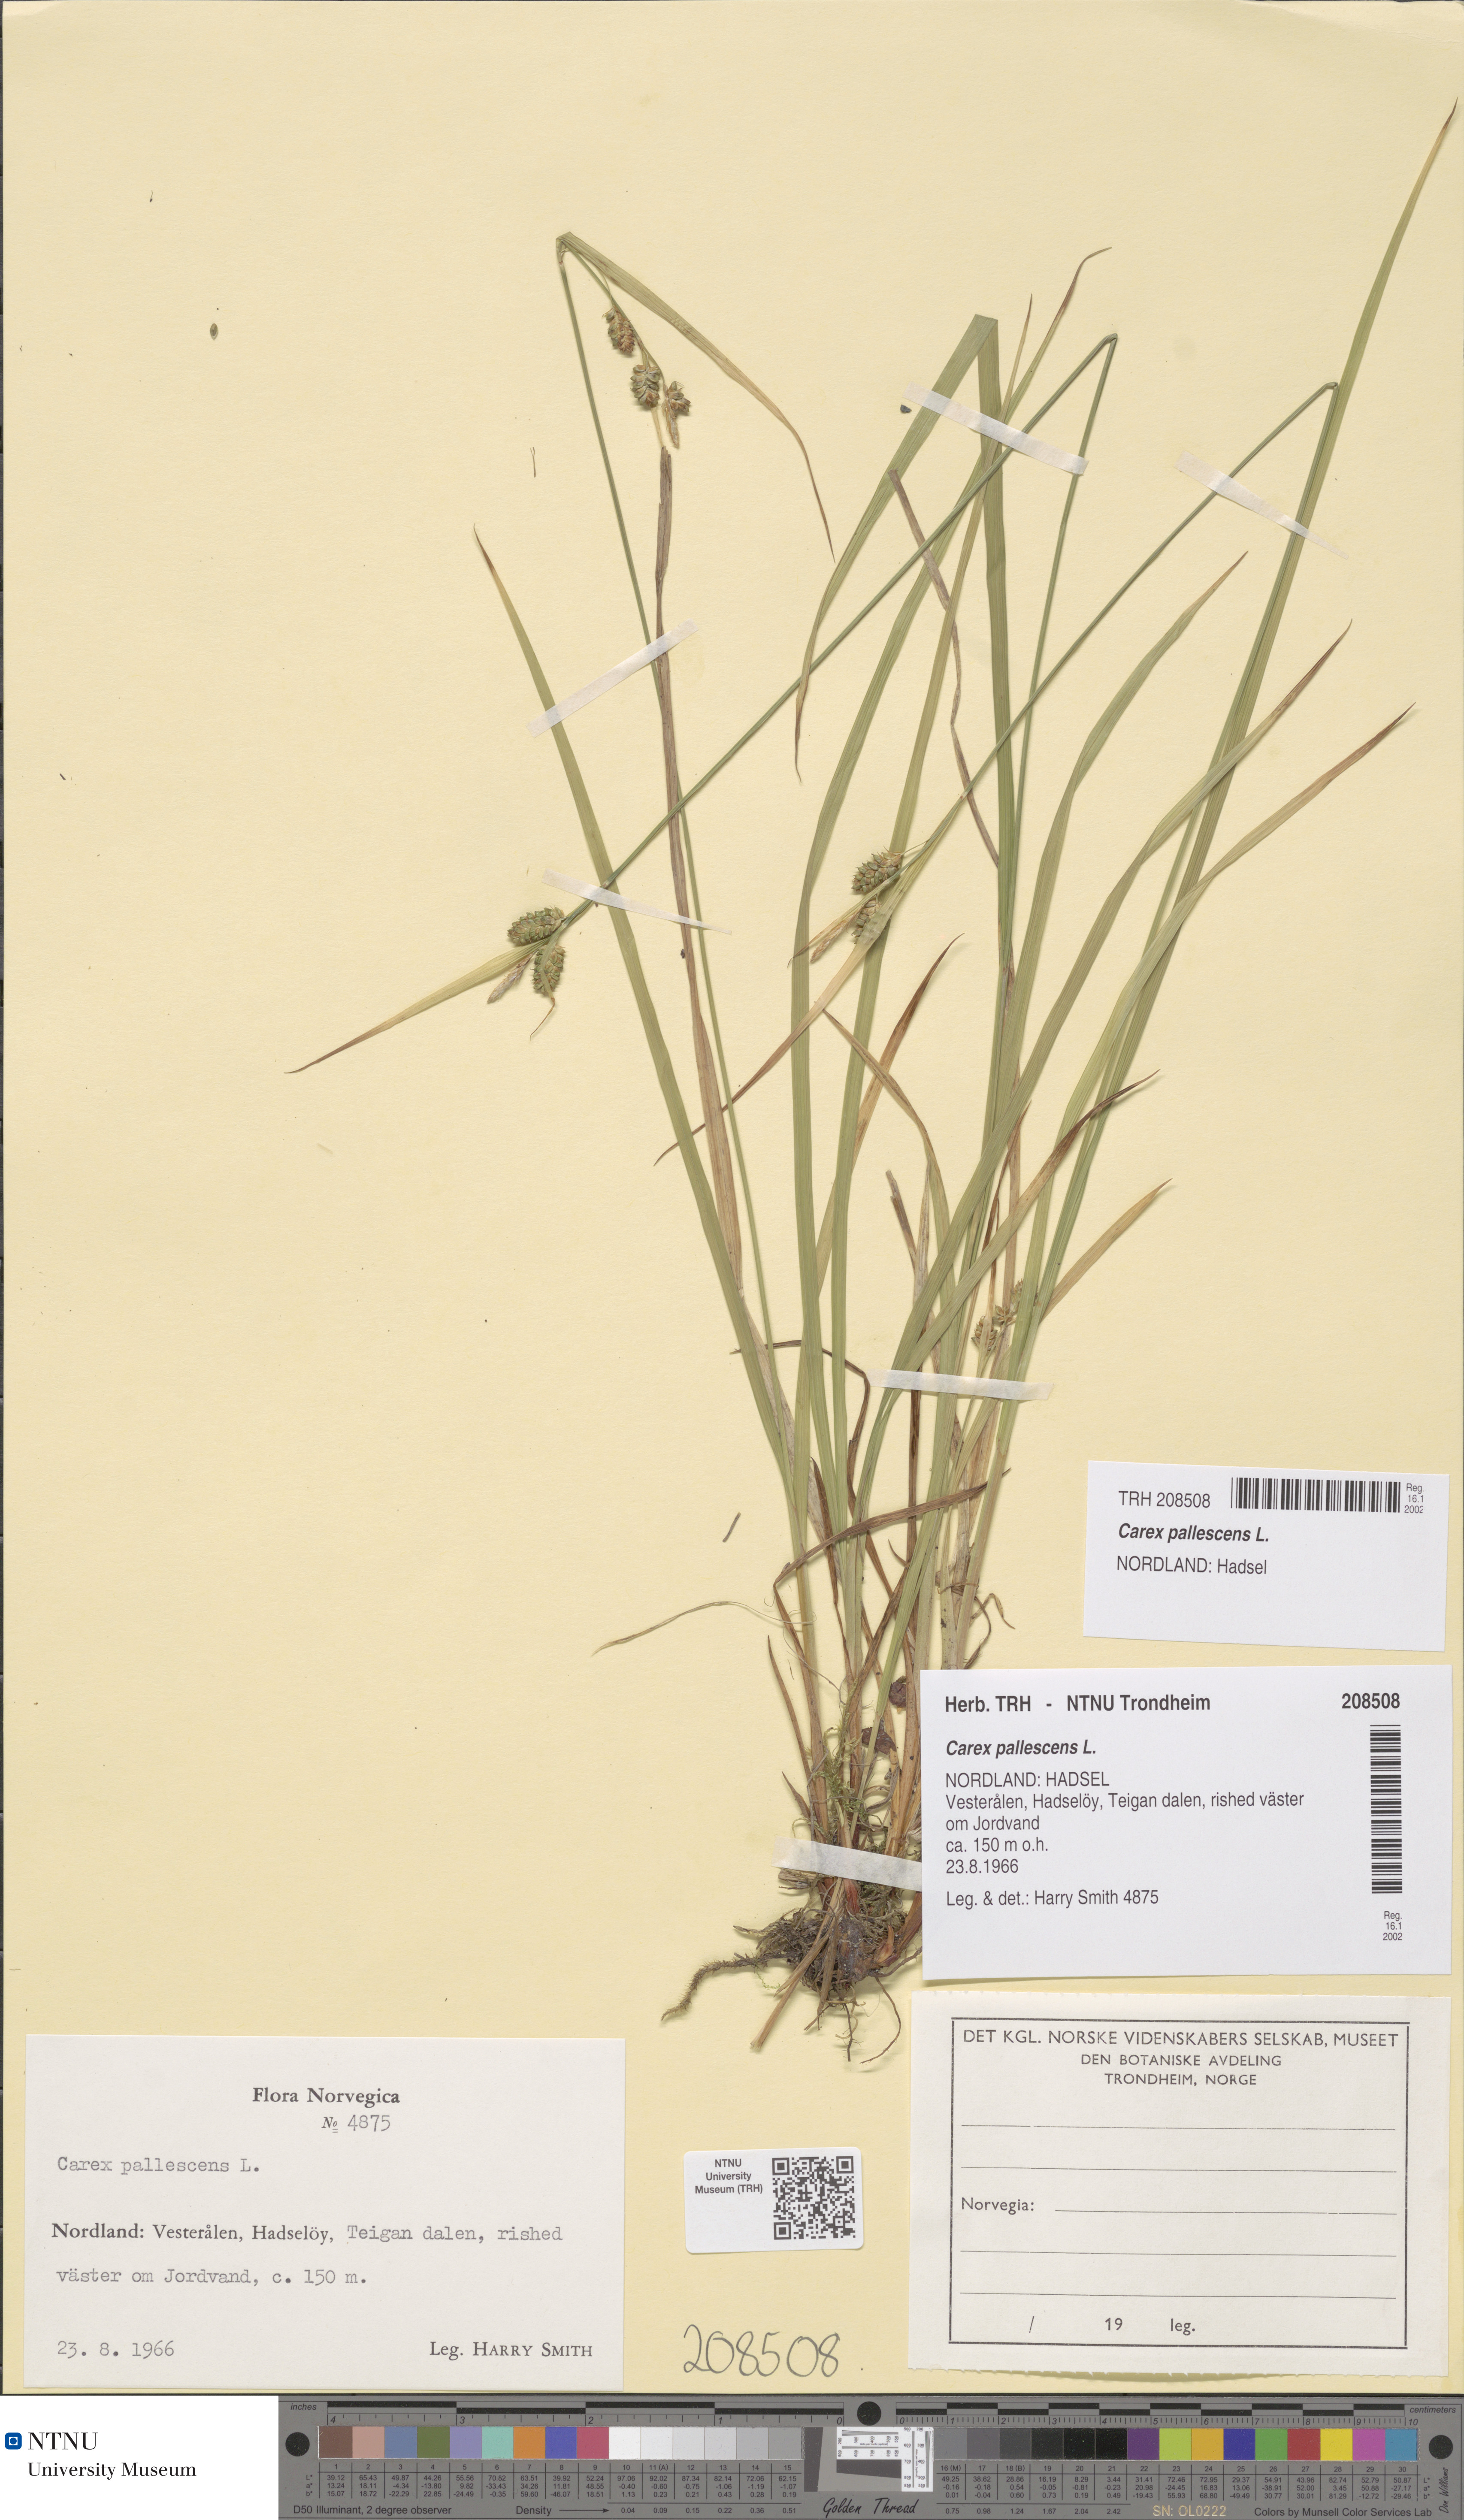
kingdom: Plantae
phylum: Tracheophyta
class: Liliopsida
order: Poales
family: Cyperaceae
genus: Carex
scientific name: Carex pallescens
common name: Pale sedge
